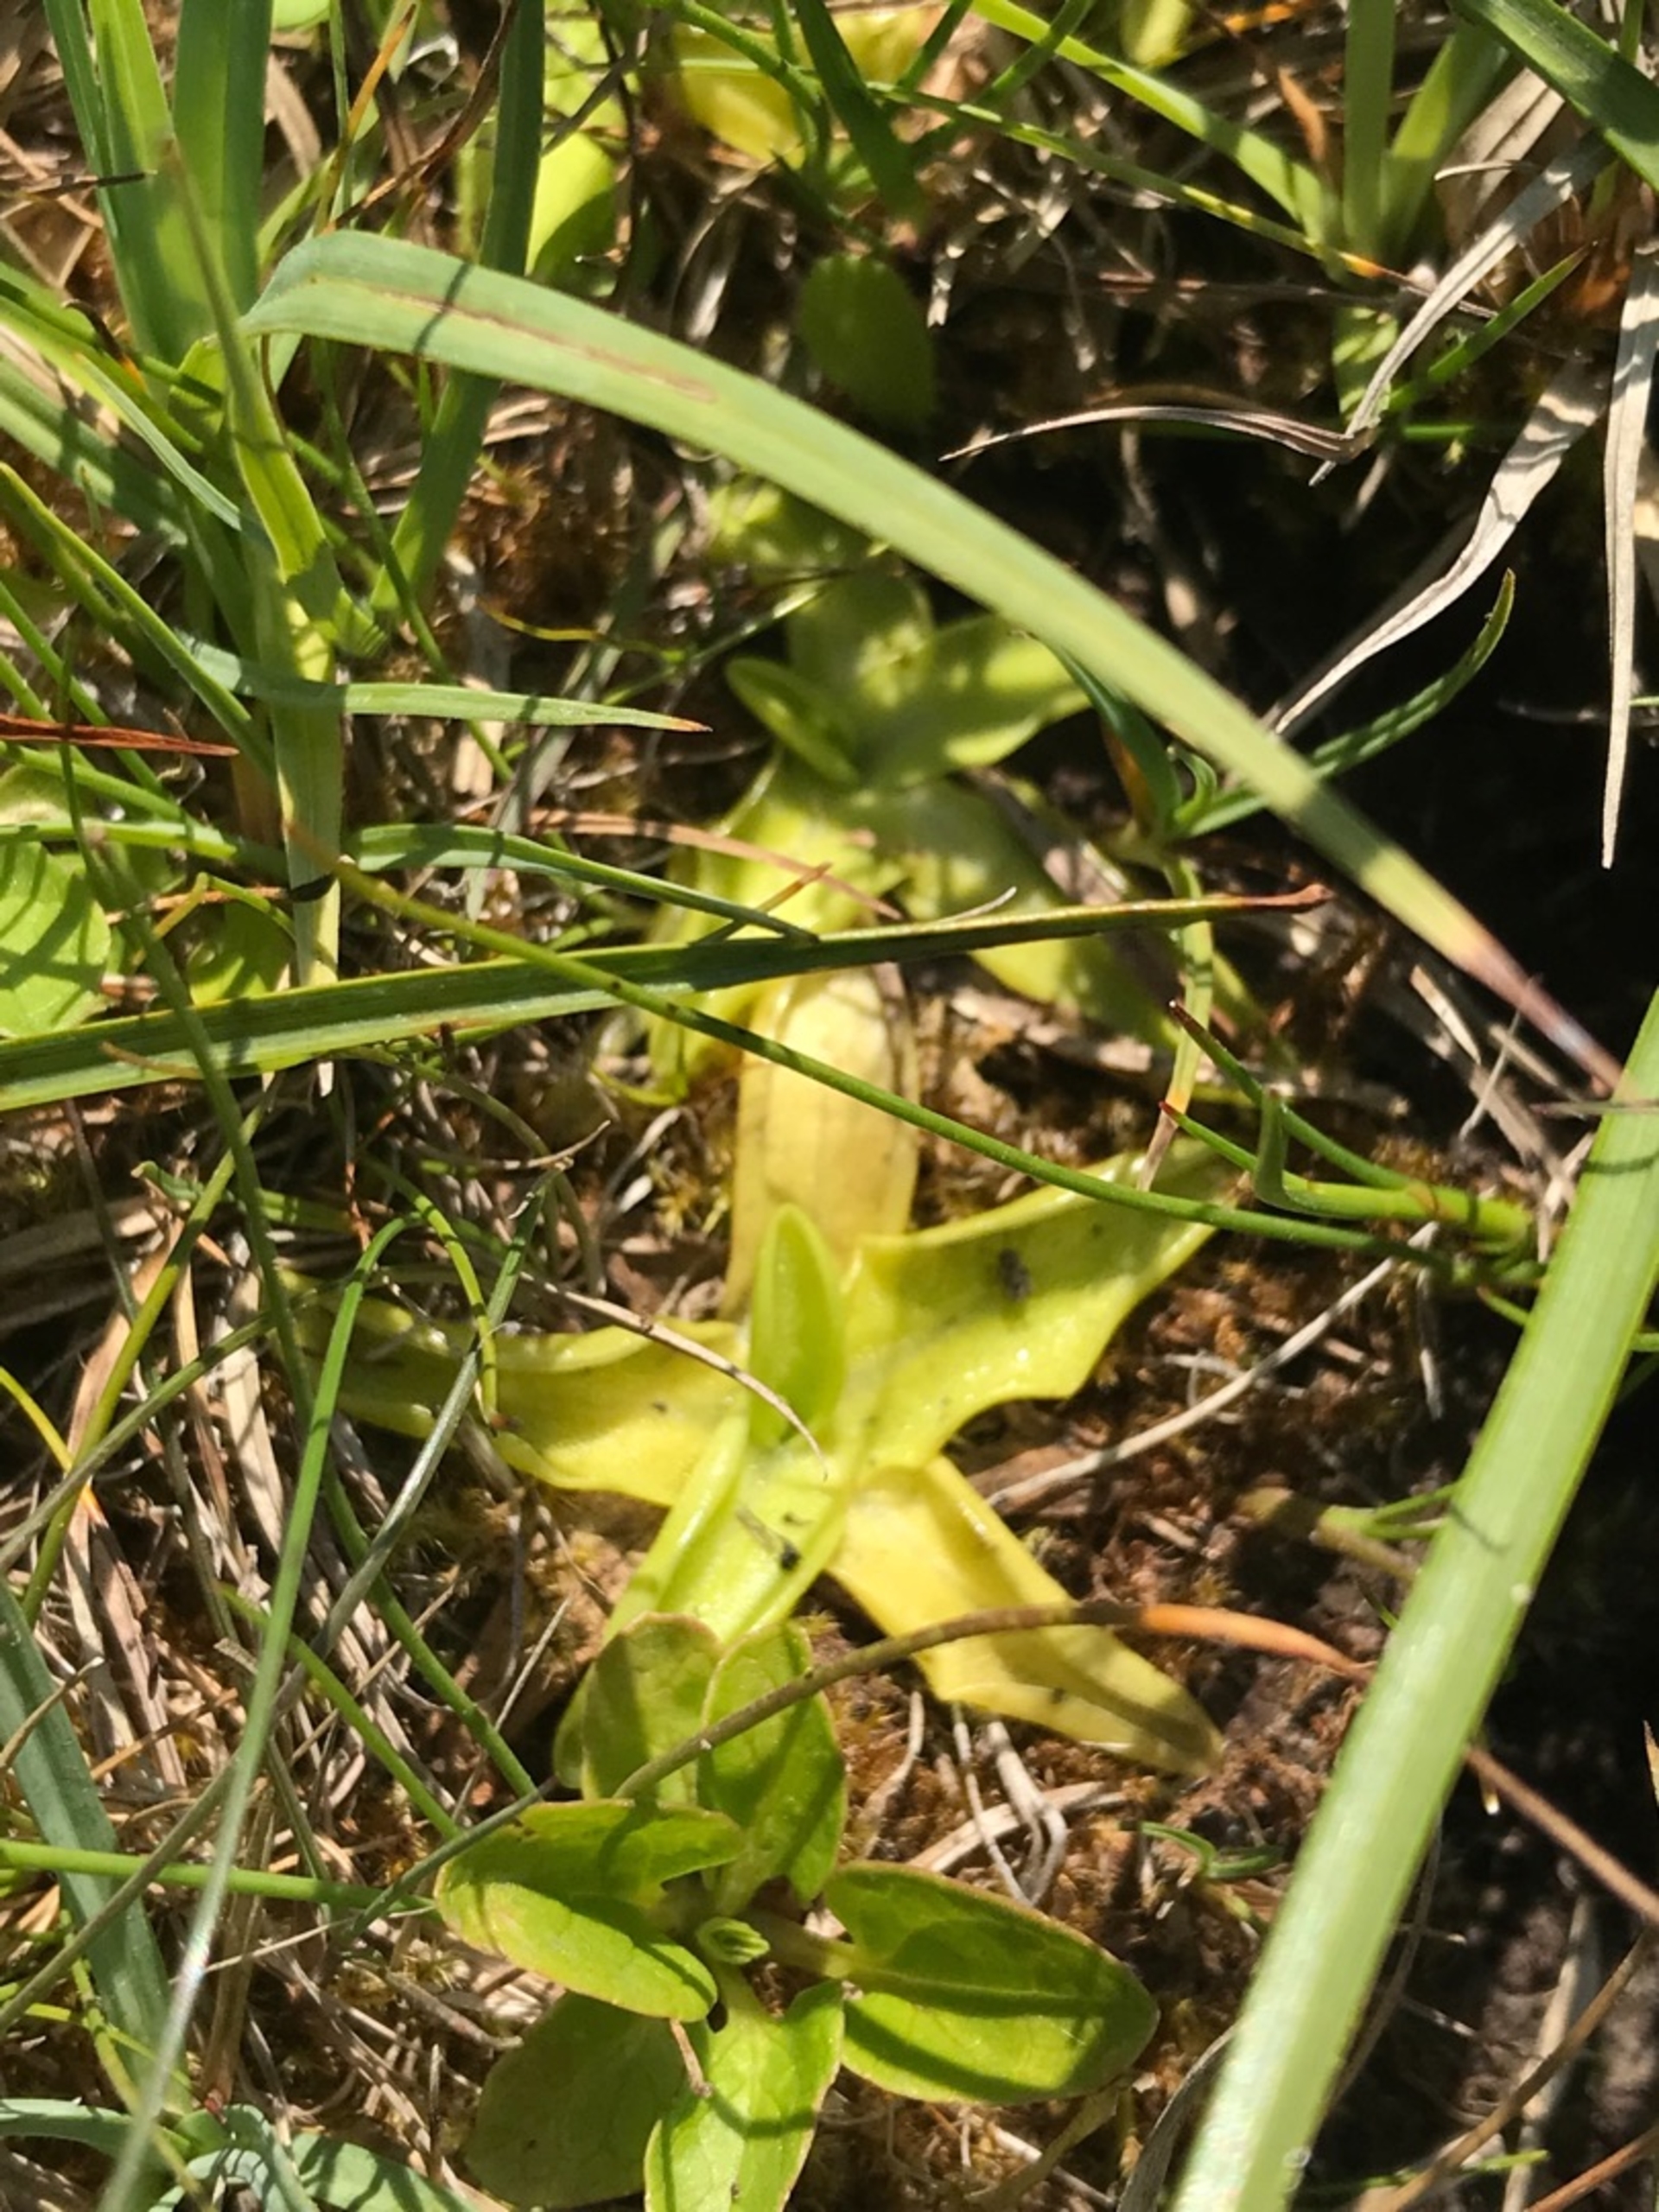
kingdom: Plantae
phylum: Tracheophyta
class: Magnoliopsida
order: Lamiales
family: Lentibulariaceae
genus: Pinguicula
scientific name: Pinguicula vulgaris
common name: Vibefedt
